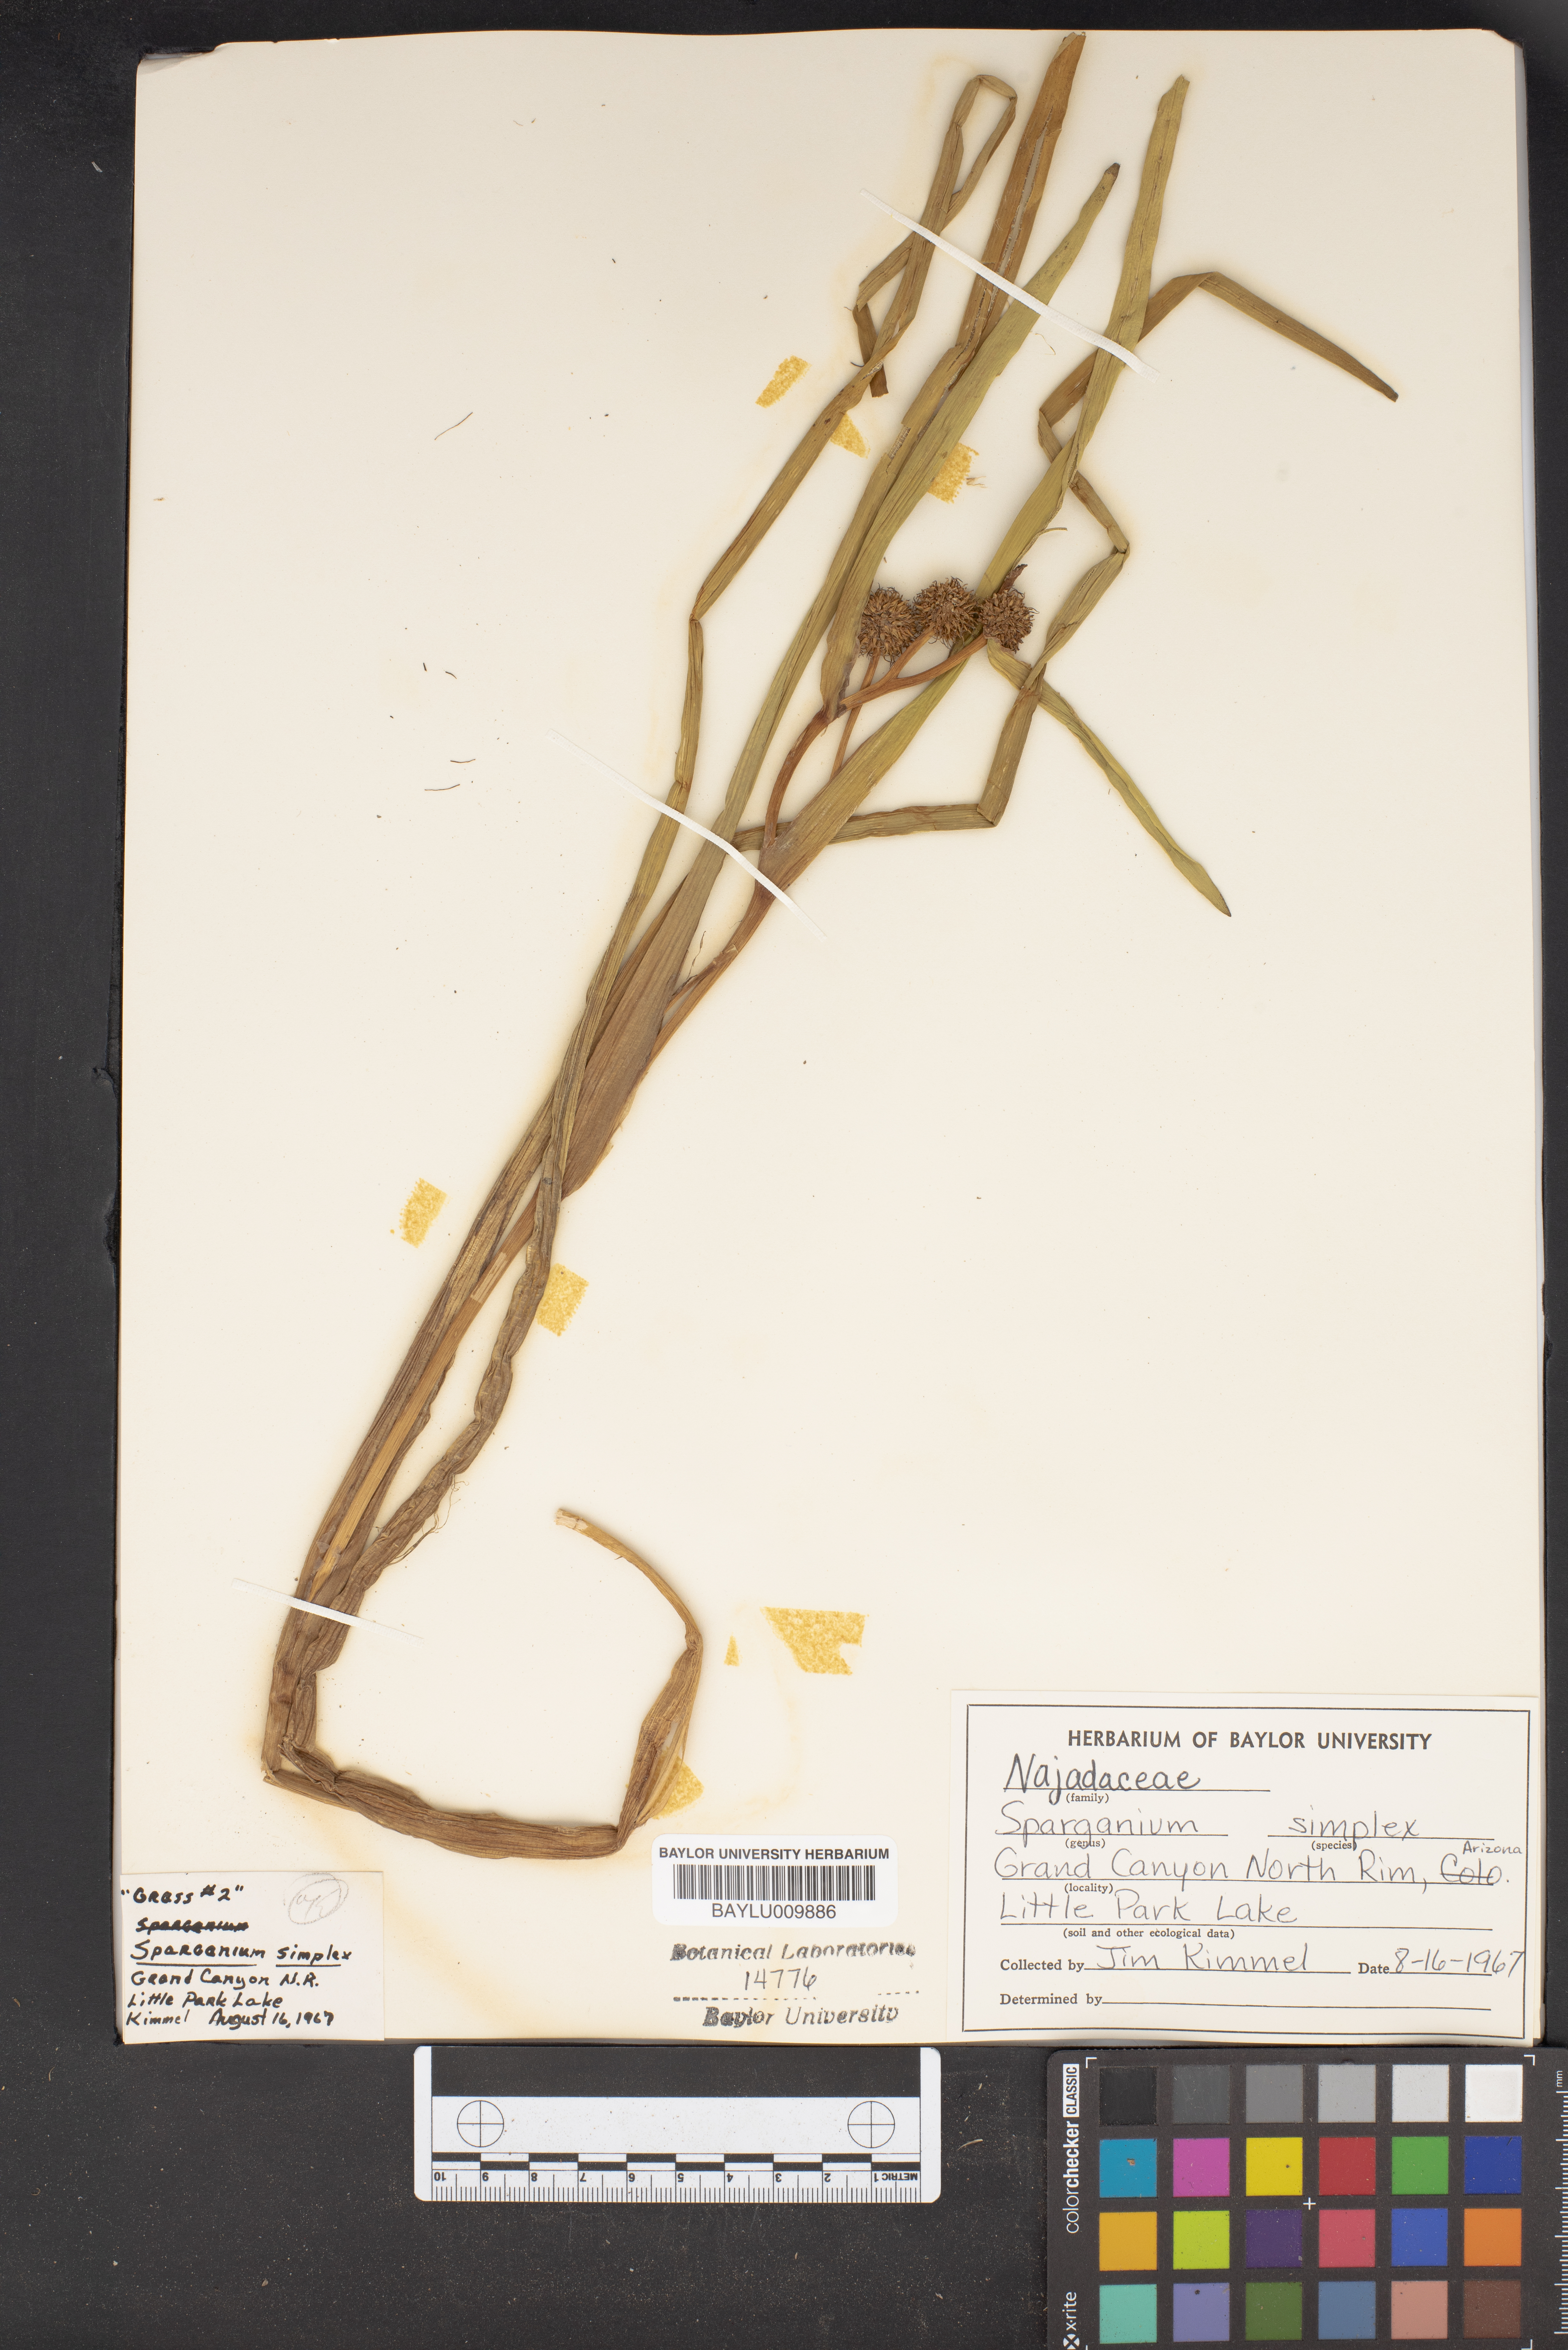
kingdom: Plantae
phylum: Tracheophyta
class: Liliopsida
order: Poales
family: Typhaceae
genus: Sparganium
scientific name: Sparganium angustifolium
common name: Floating bur-reed
